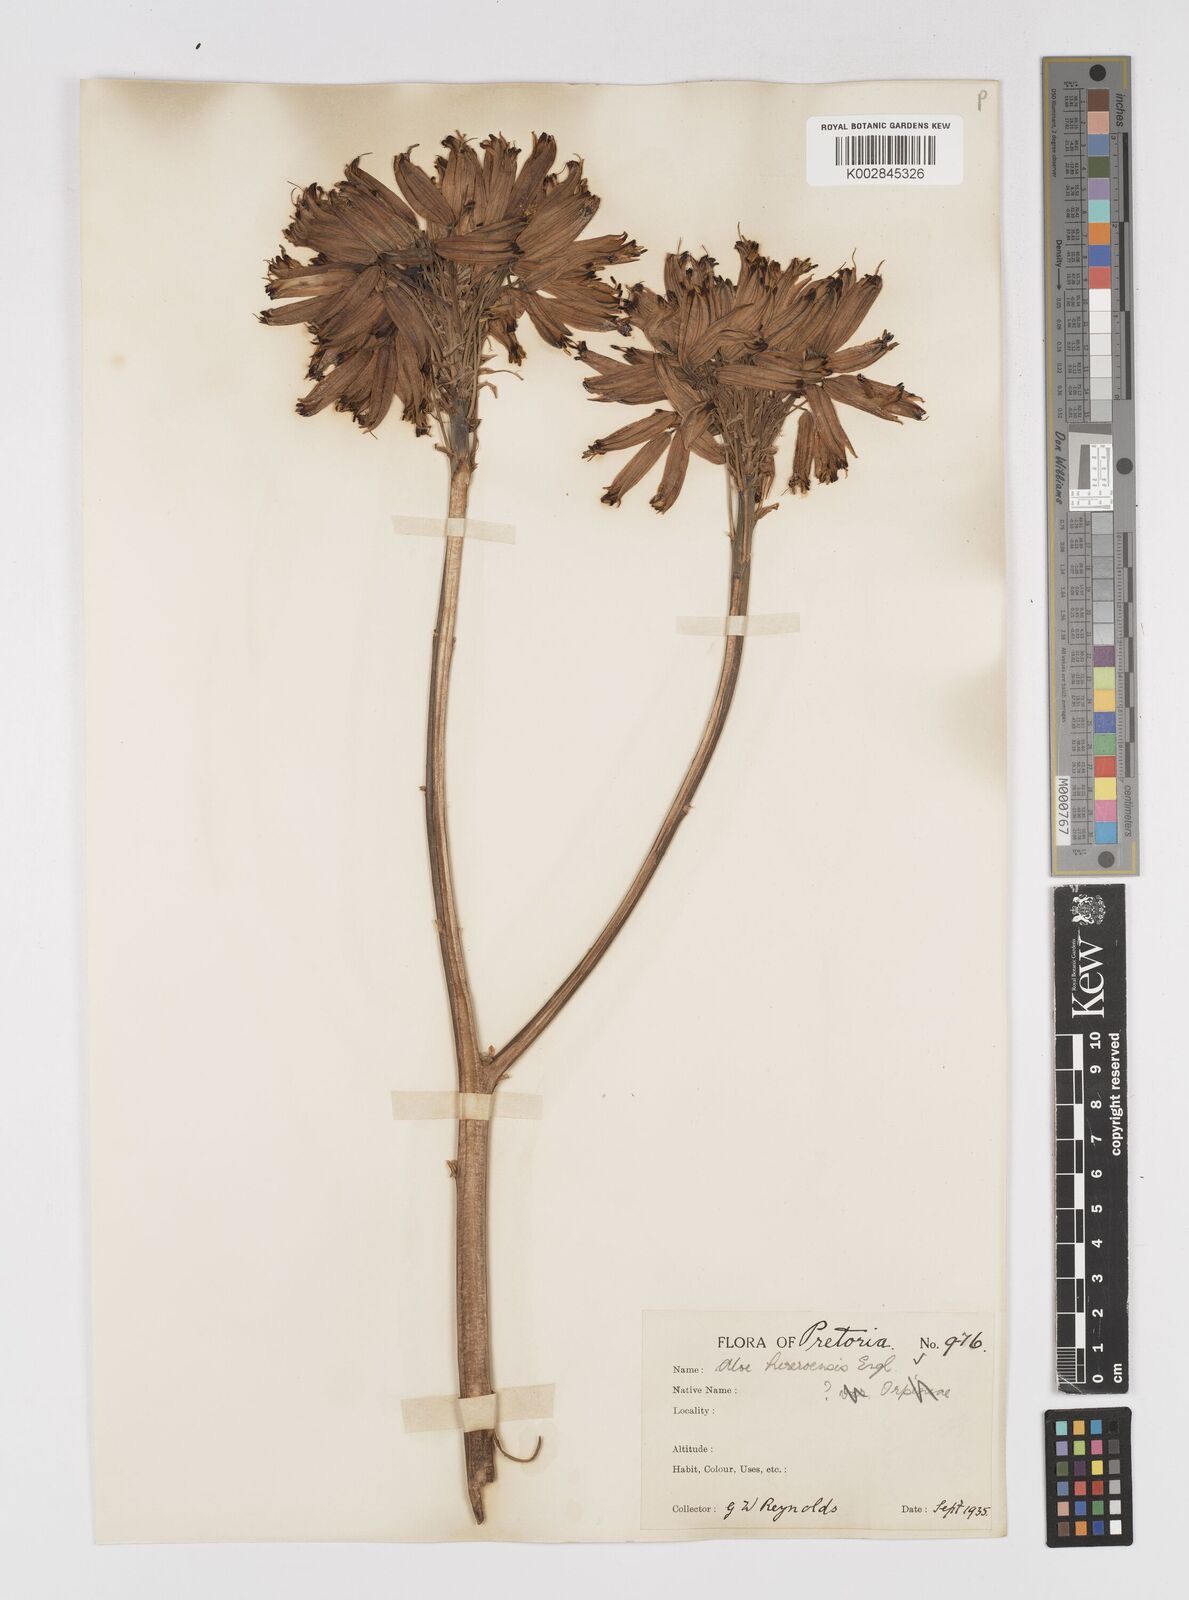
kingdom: Plantae
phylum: Tracheophyta
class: Liliopsida
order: Asparagales
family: Asphodelaceae
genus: Aloe
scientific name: Aloe hereroensis
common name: Herero aloe
